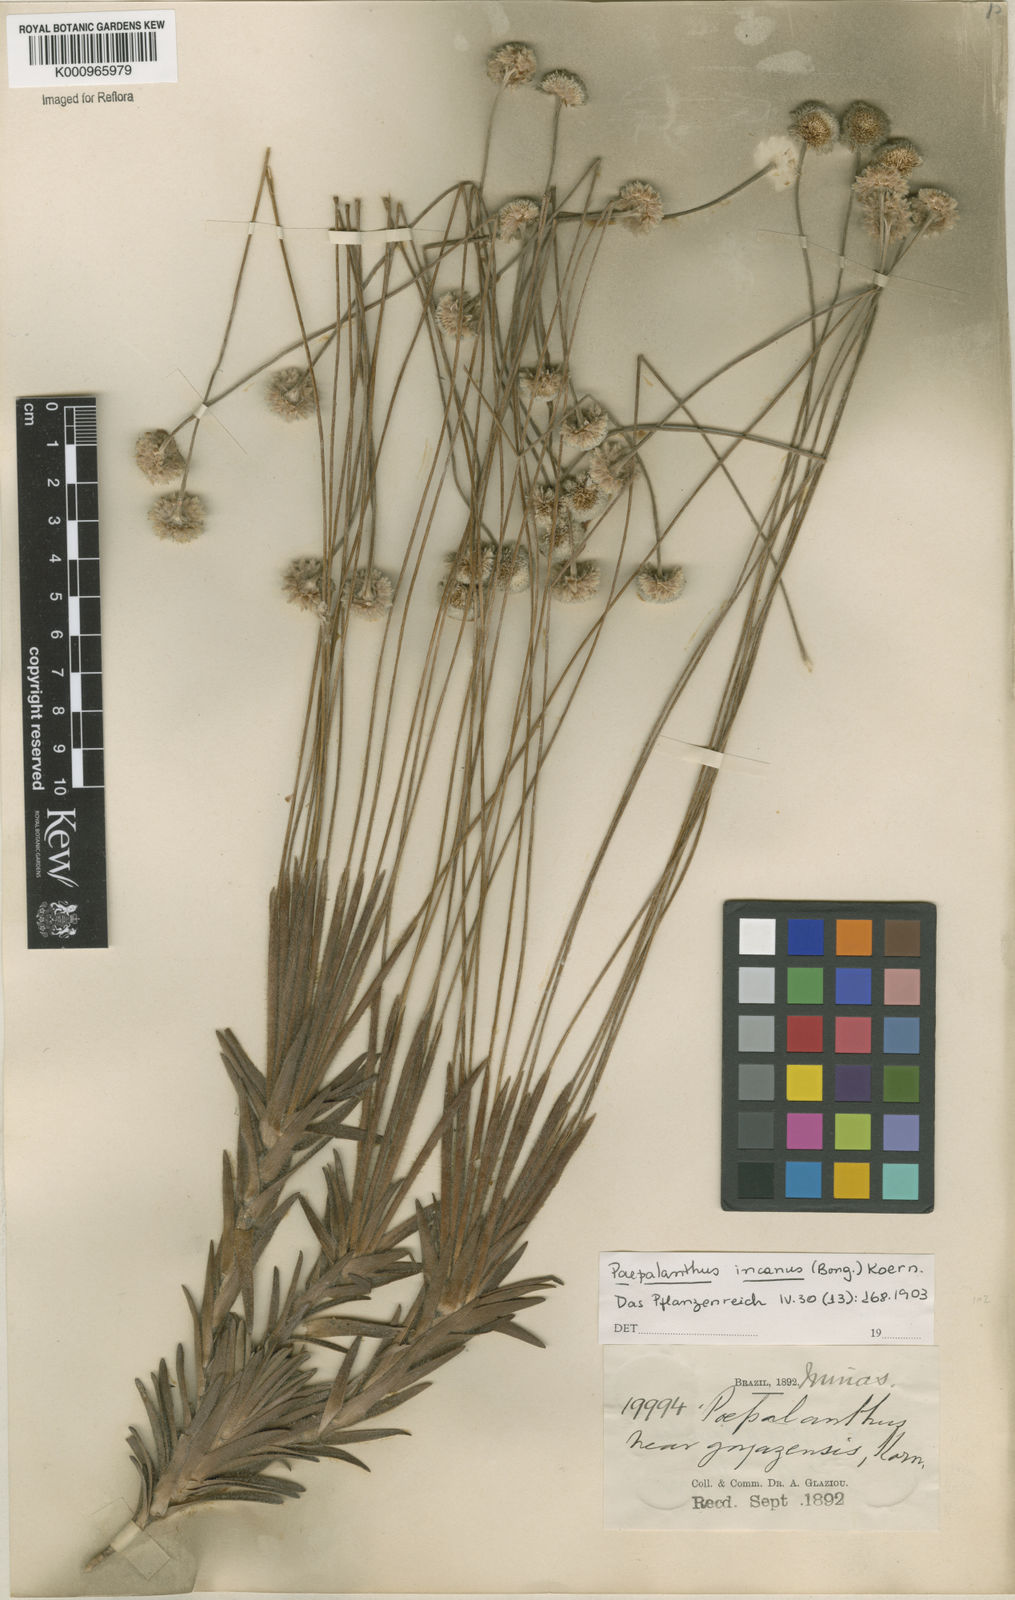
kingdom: Plantae
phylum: Tracheophyta
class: Liliopsida
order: Poales
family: Eriocaulaceae
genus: Paepalanthus
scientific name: Paepalanthus
